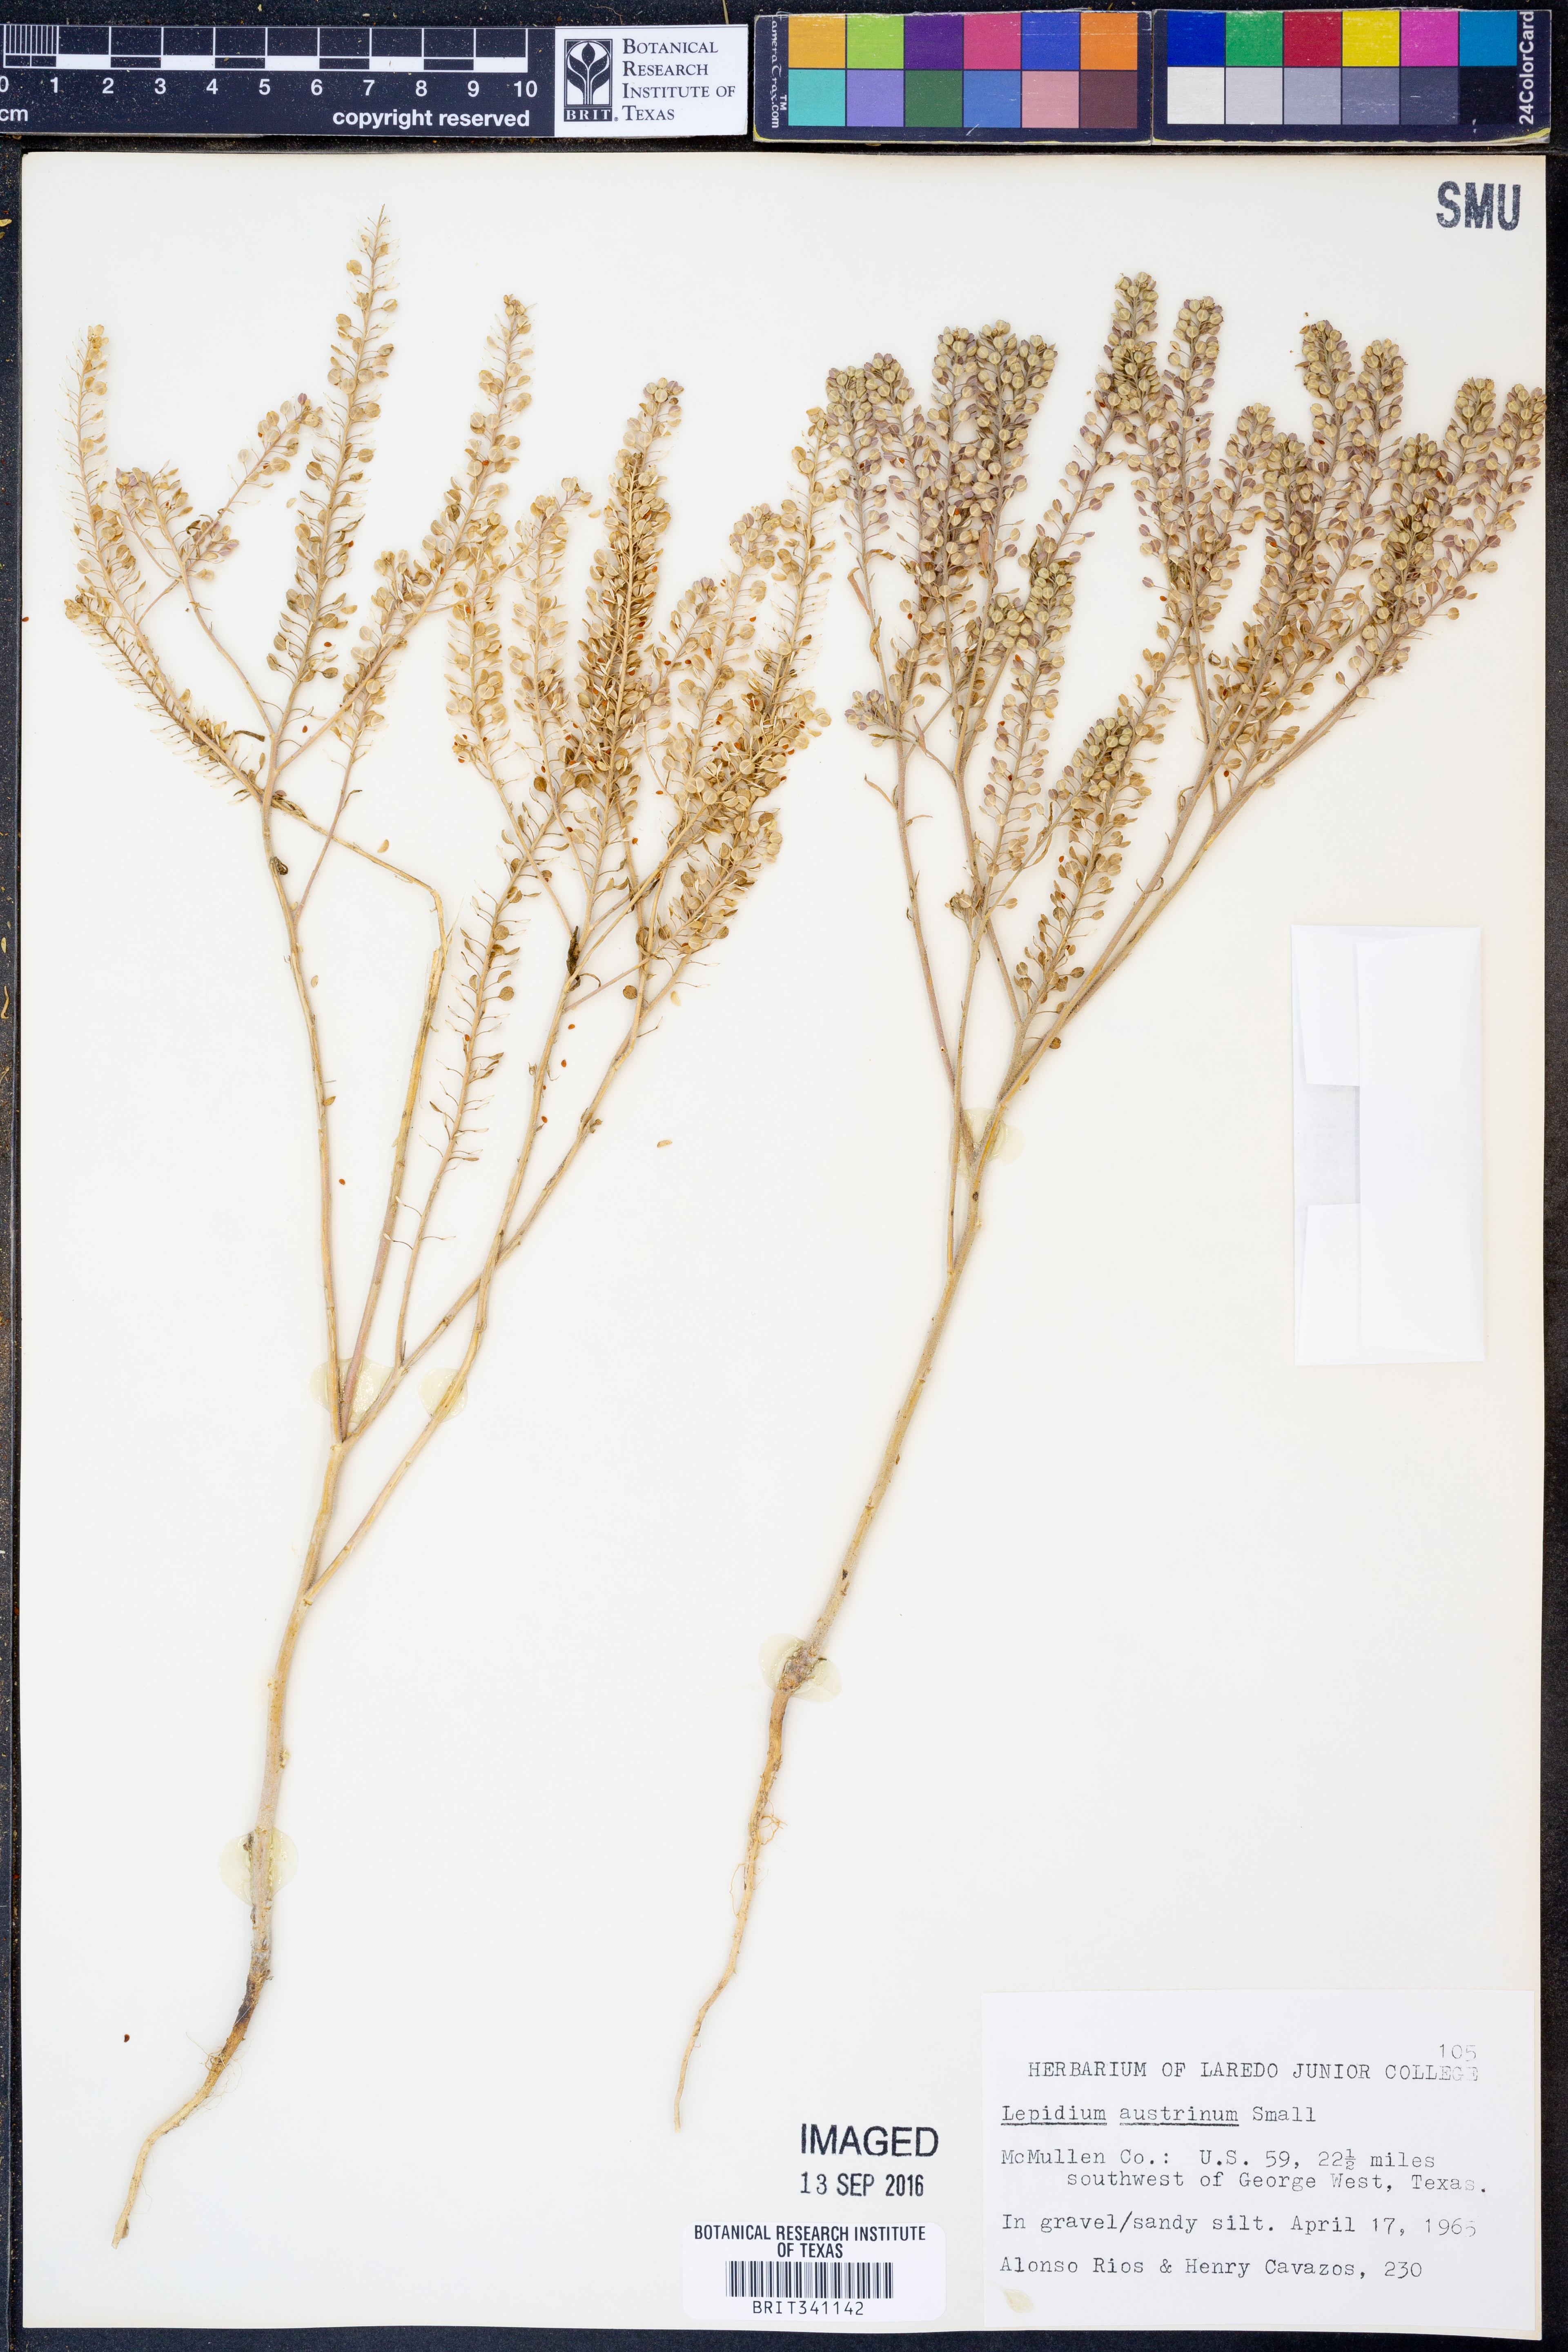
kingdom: Plantae
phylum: Tracheophyta
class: Magnoliopsida
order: Brassicales
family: Brassicaceae
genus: Lepidium
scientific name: Lepidium austrinum
